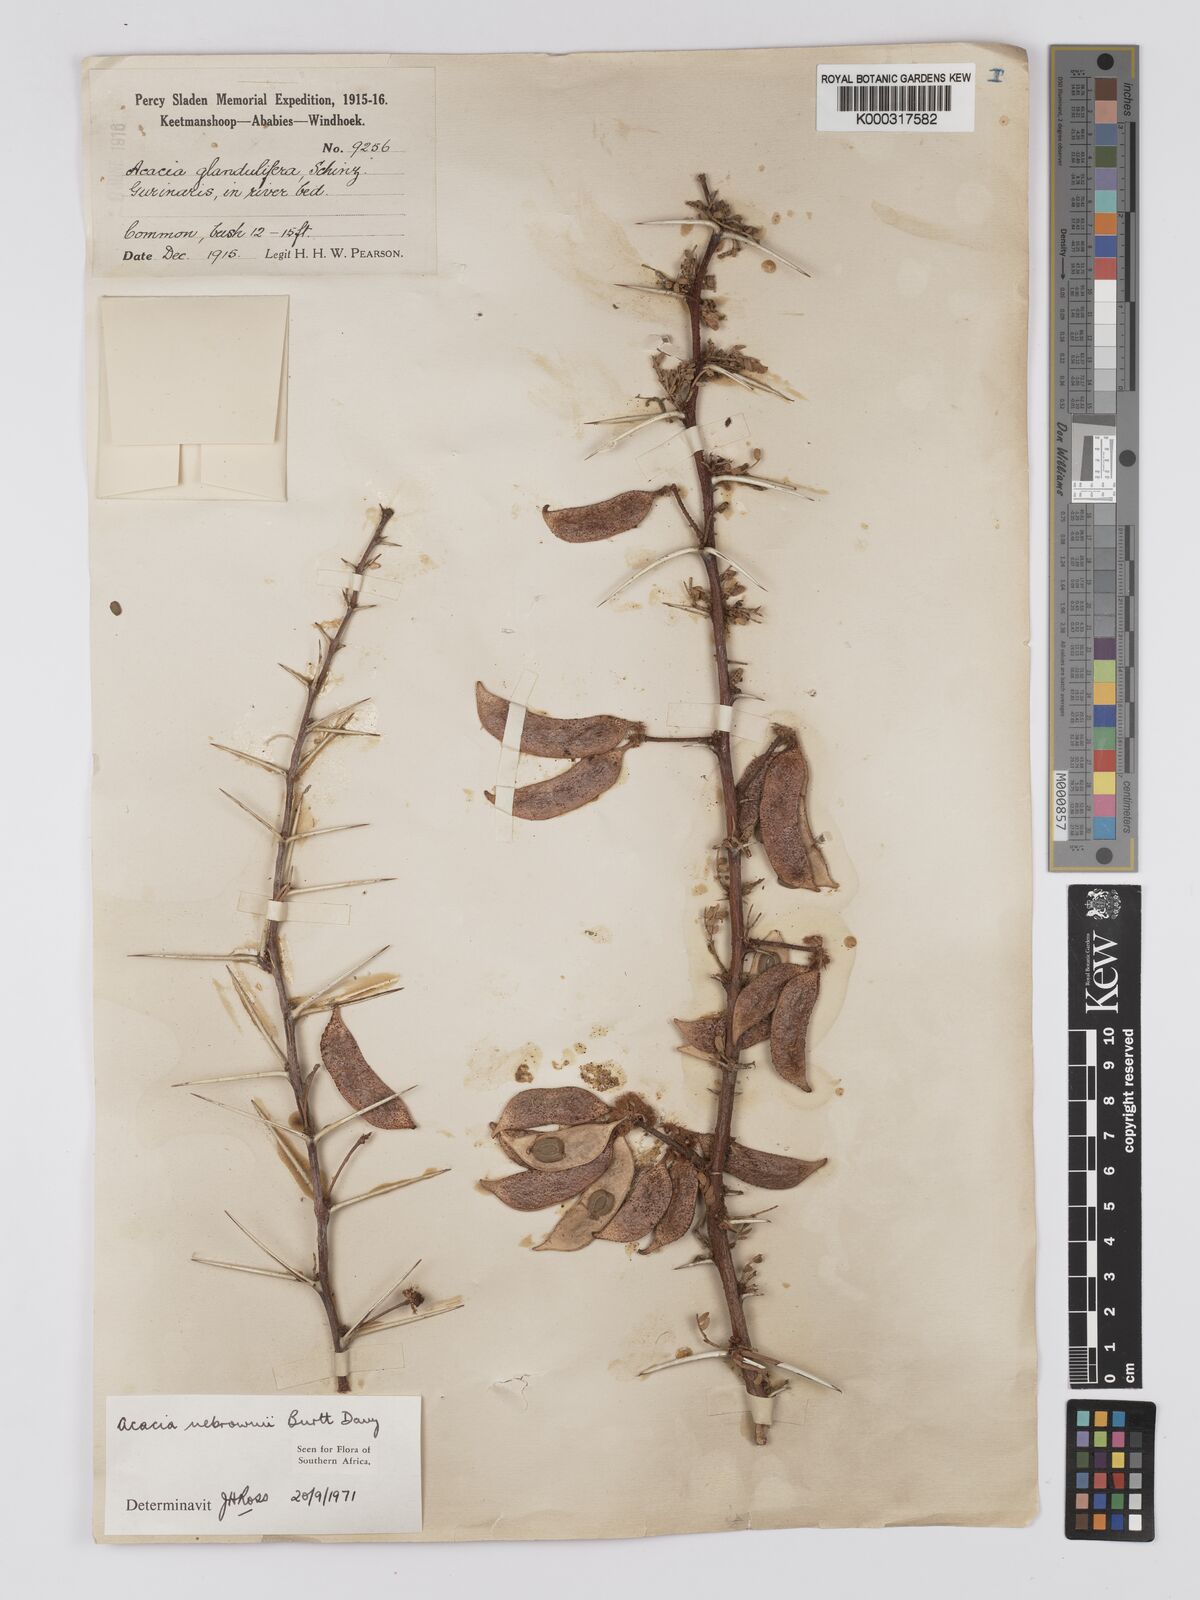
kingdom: Plantae
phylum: Tracheophyta
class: Magnoliopsida
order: Fabales
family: Fabaceae
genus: Vachellia
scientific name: Vachellia nebrownii
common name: Water acacia
